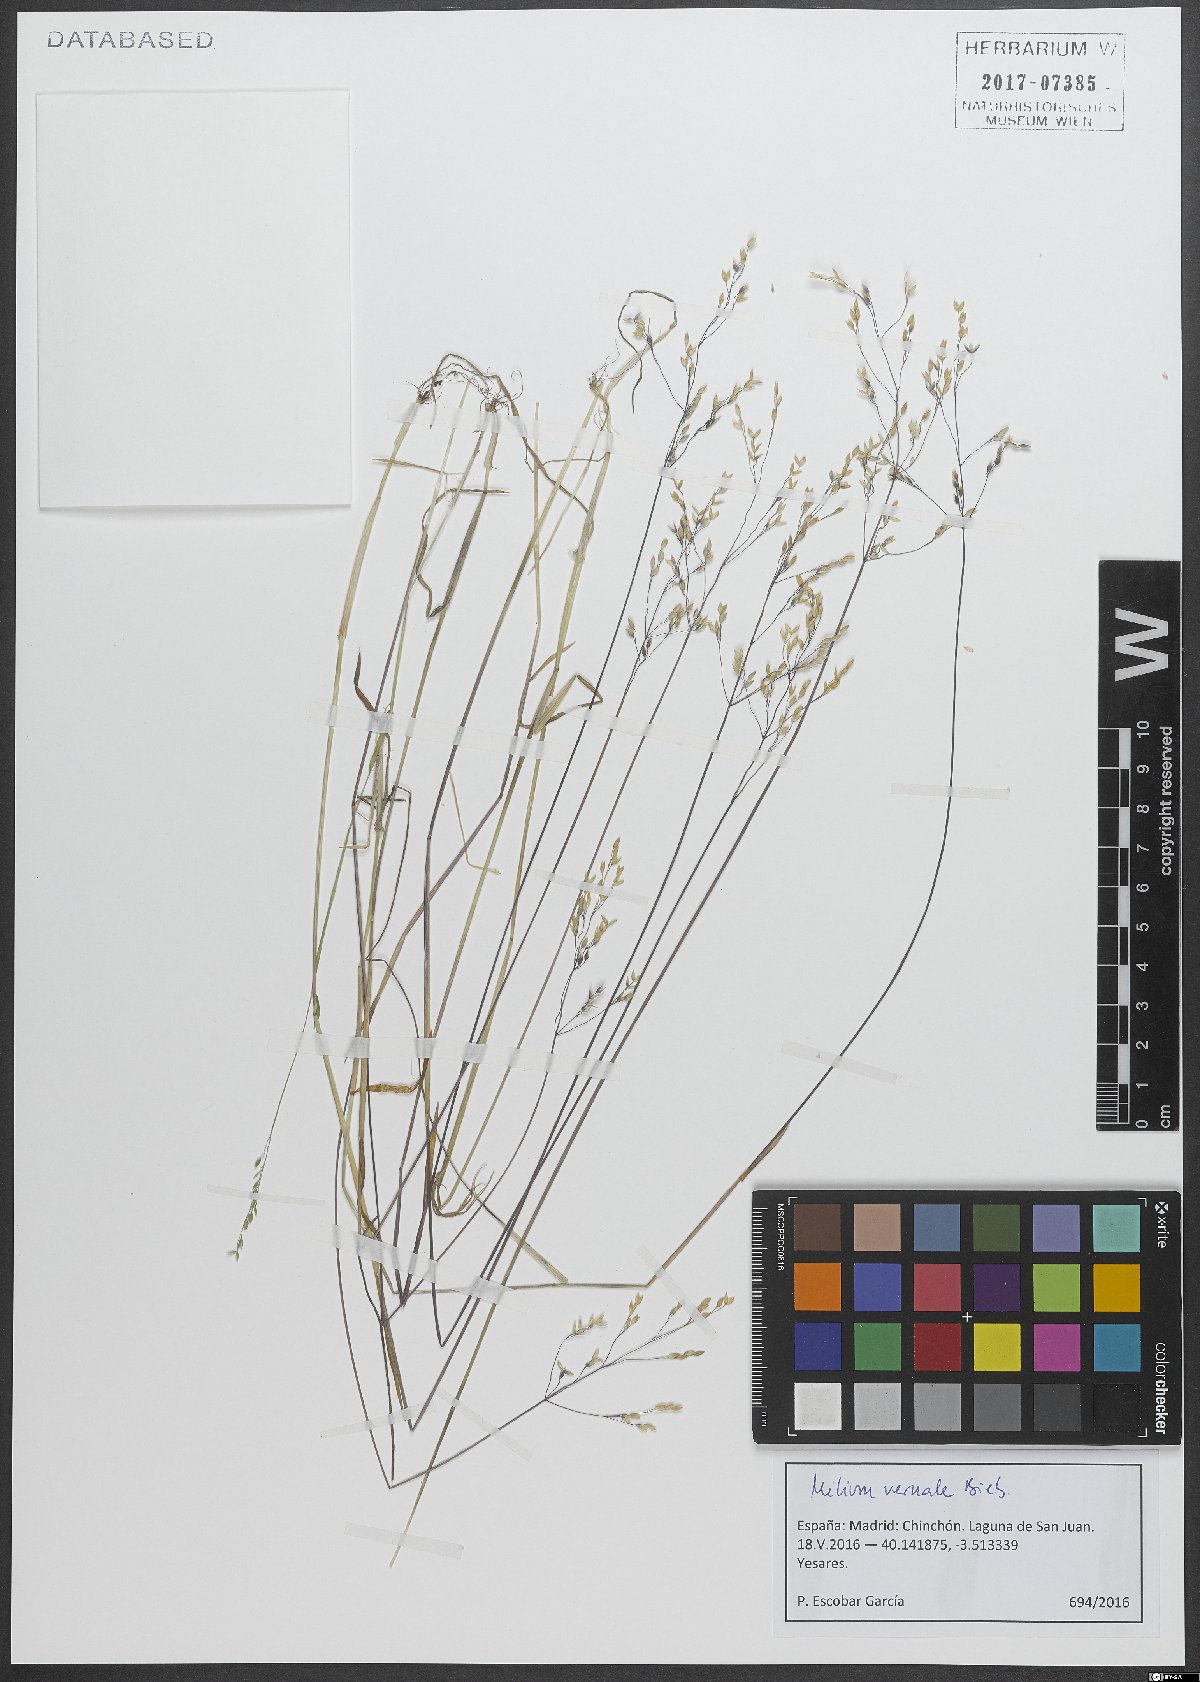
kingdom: Plantae
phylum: Tracheophyta
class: Liliopsida
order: Poales
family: Poaceae
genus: Milium
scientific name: Milium vernale
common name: Early millet
